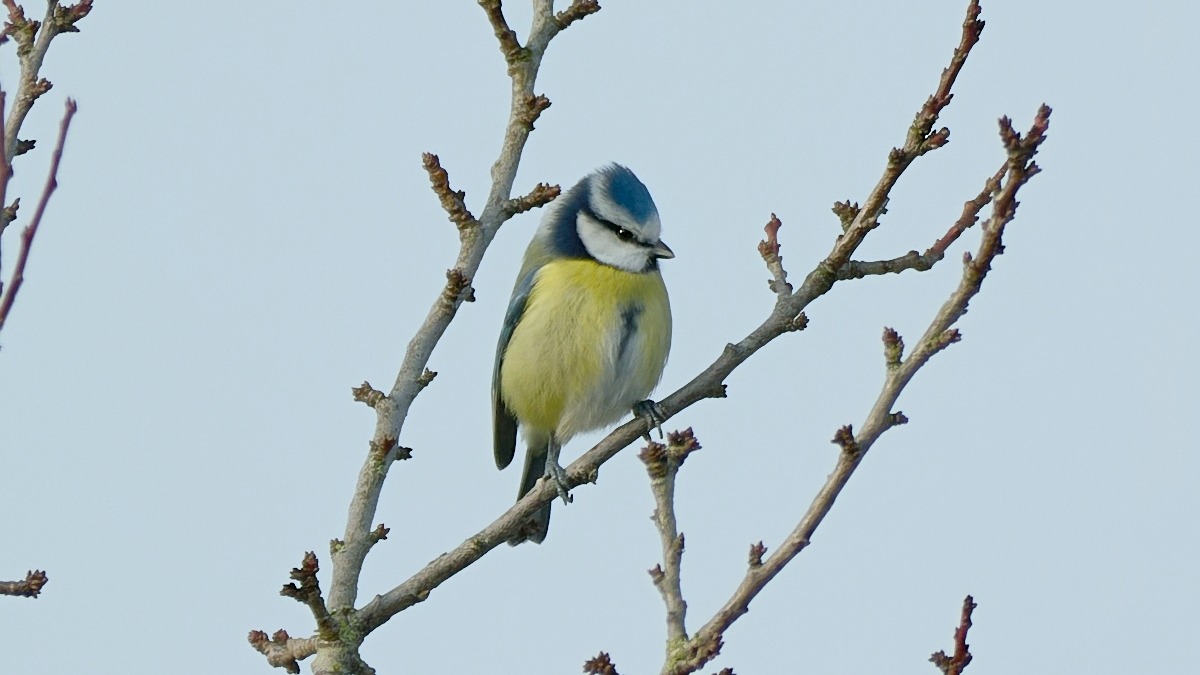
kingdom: Animalia
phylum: Chordata
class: Aves
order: Passeriformes
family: Paridae
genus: Cyanistes
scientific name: Cyanistes caeruleus
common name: Blåmejse
